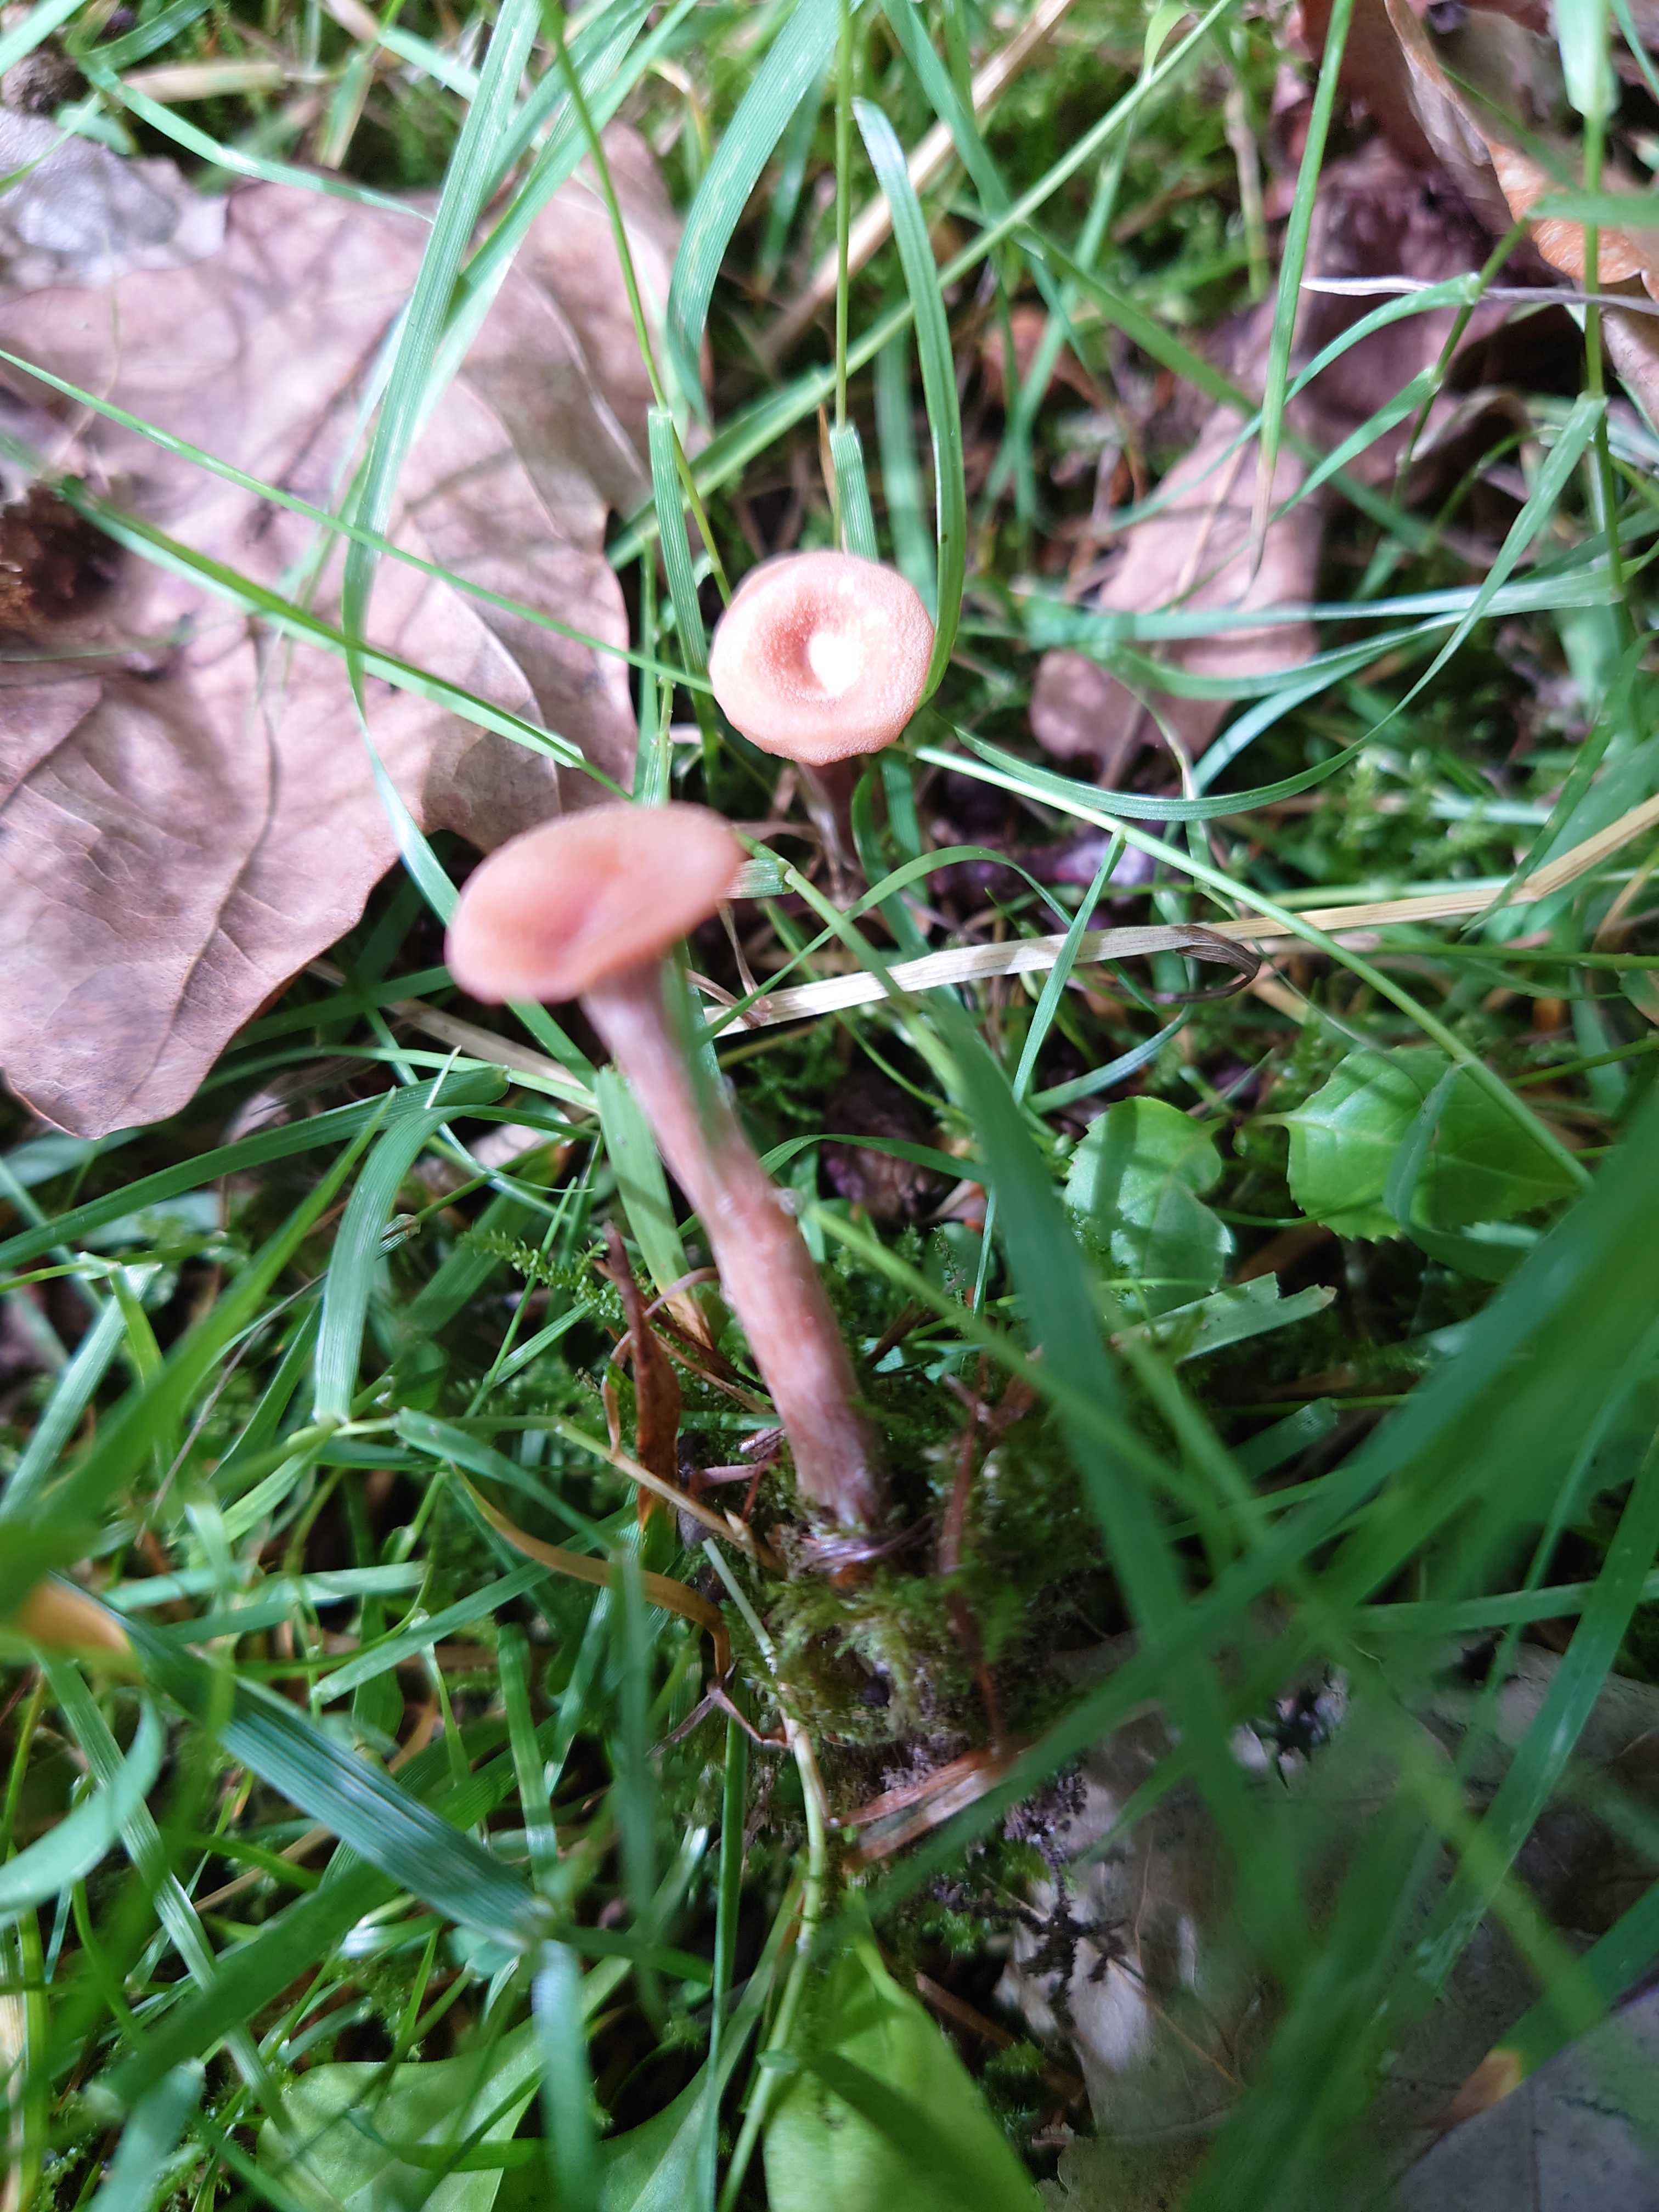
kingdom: Fungi
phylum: Basidiomycota
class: Agaricomycetes
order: Agaricales
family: Hydnangiaceae
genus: Laccaria
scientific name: Laccaria laccata
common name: rød ametysthat
